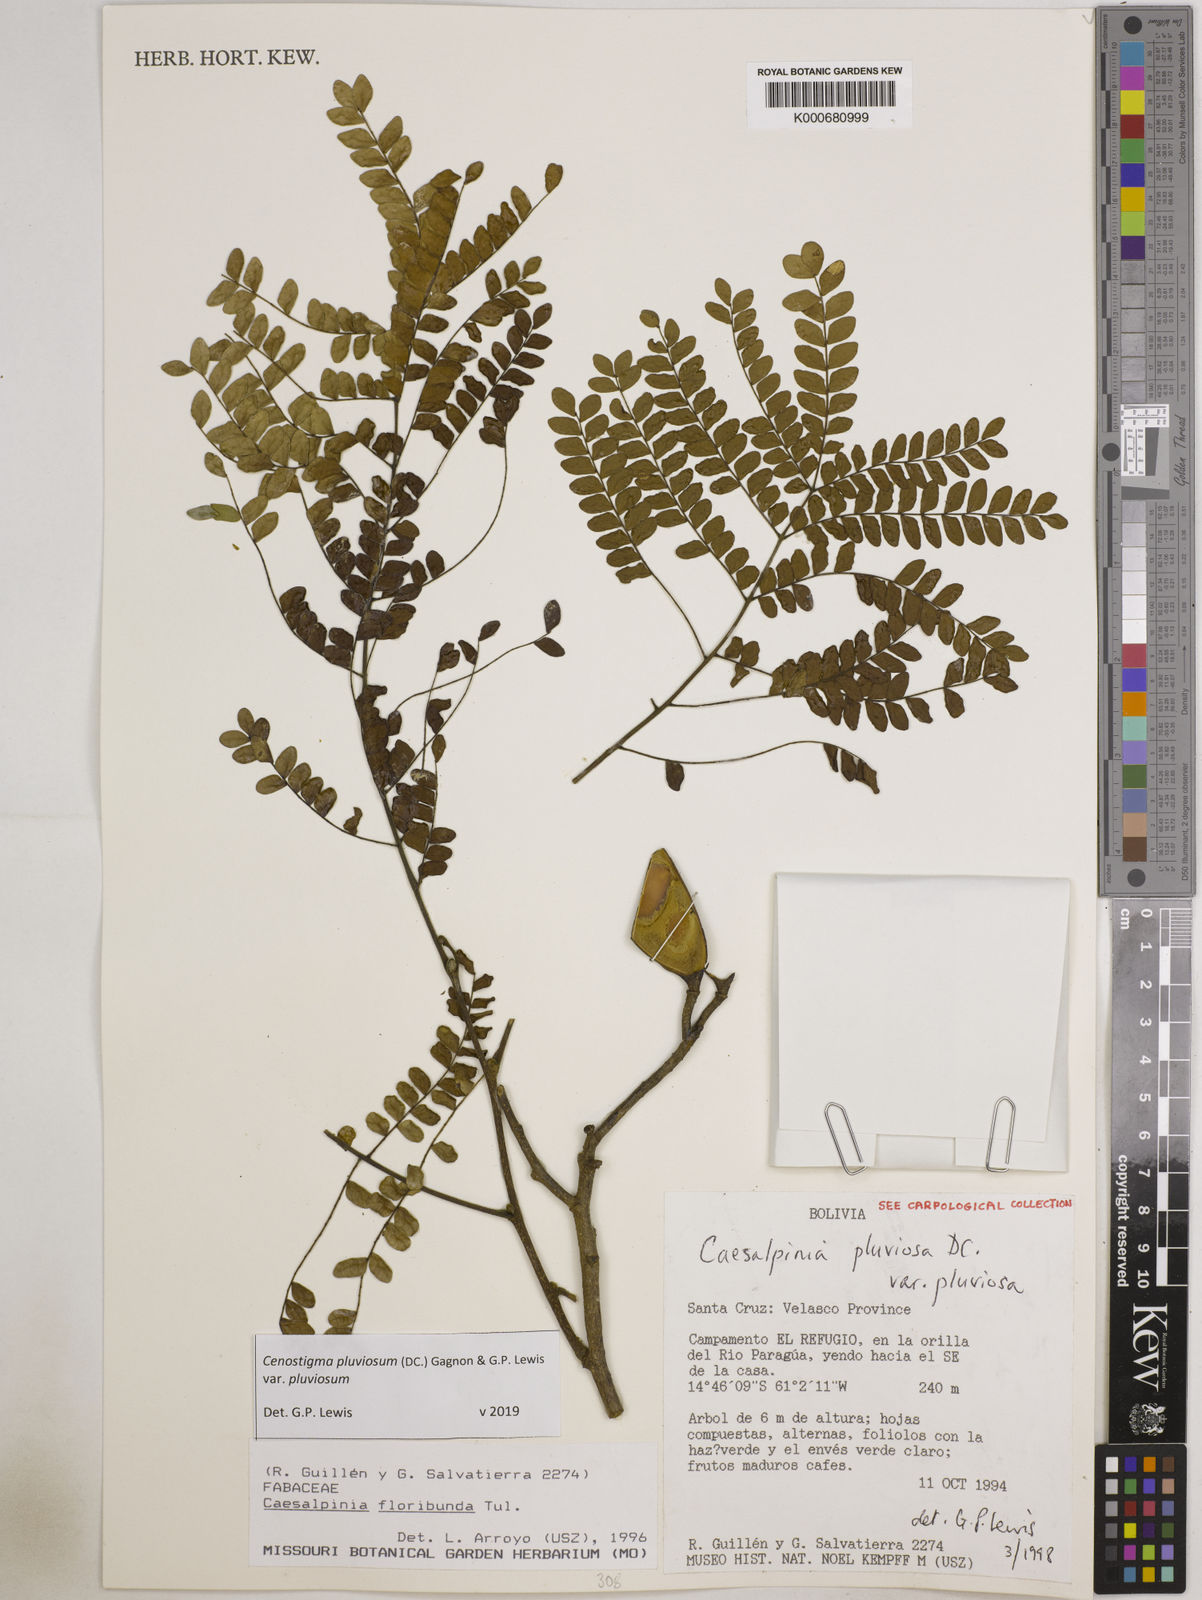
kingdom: Plantae
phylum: Tracheophyta
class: Magnoliopsida
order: Fabales
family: Fabaceae
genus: Cenostigma
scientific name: Cenostigma pluviosum
